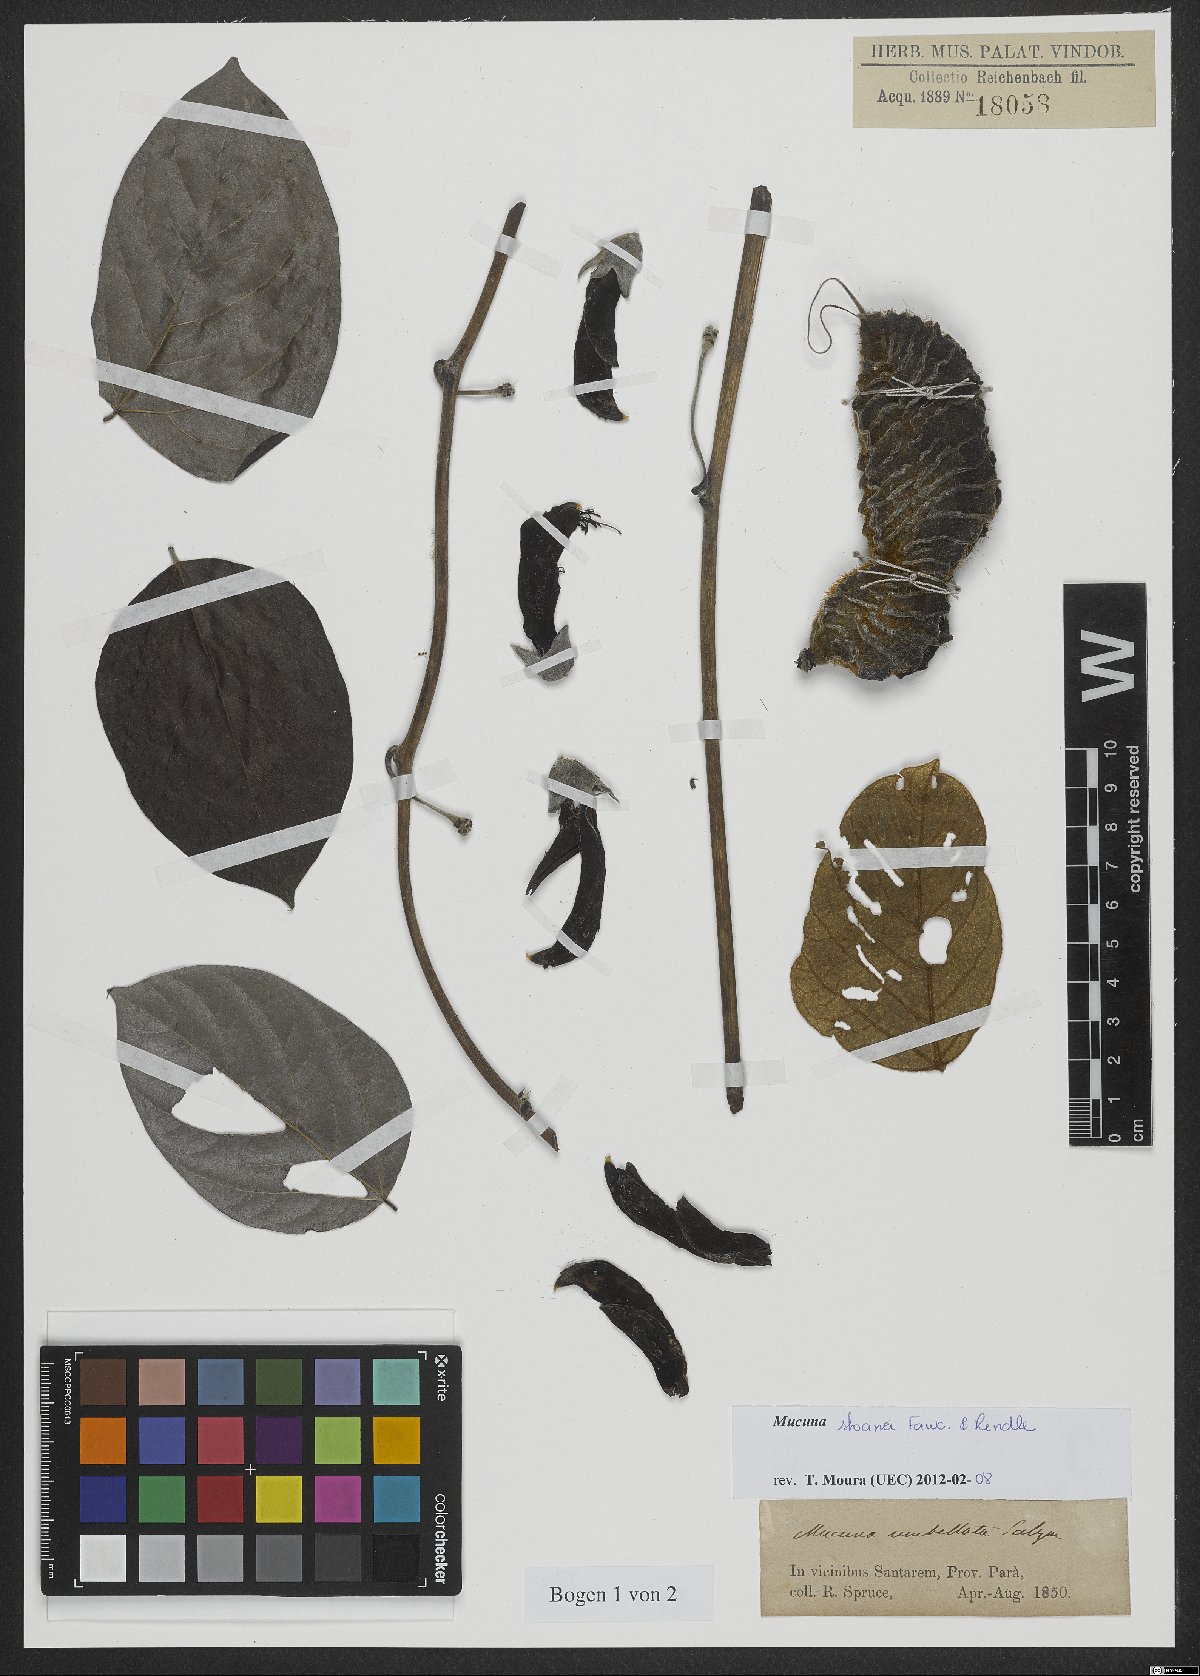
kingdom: Plantae
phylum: Tracheophyta
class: Magnoliopsida
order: Fabales
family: Fabaceae
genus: Mucuna
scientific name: Mucuna urens
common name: Red hamburger bean
